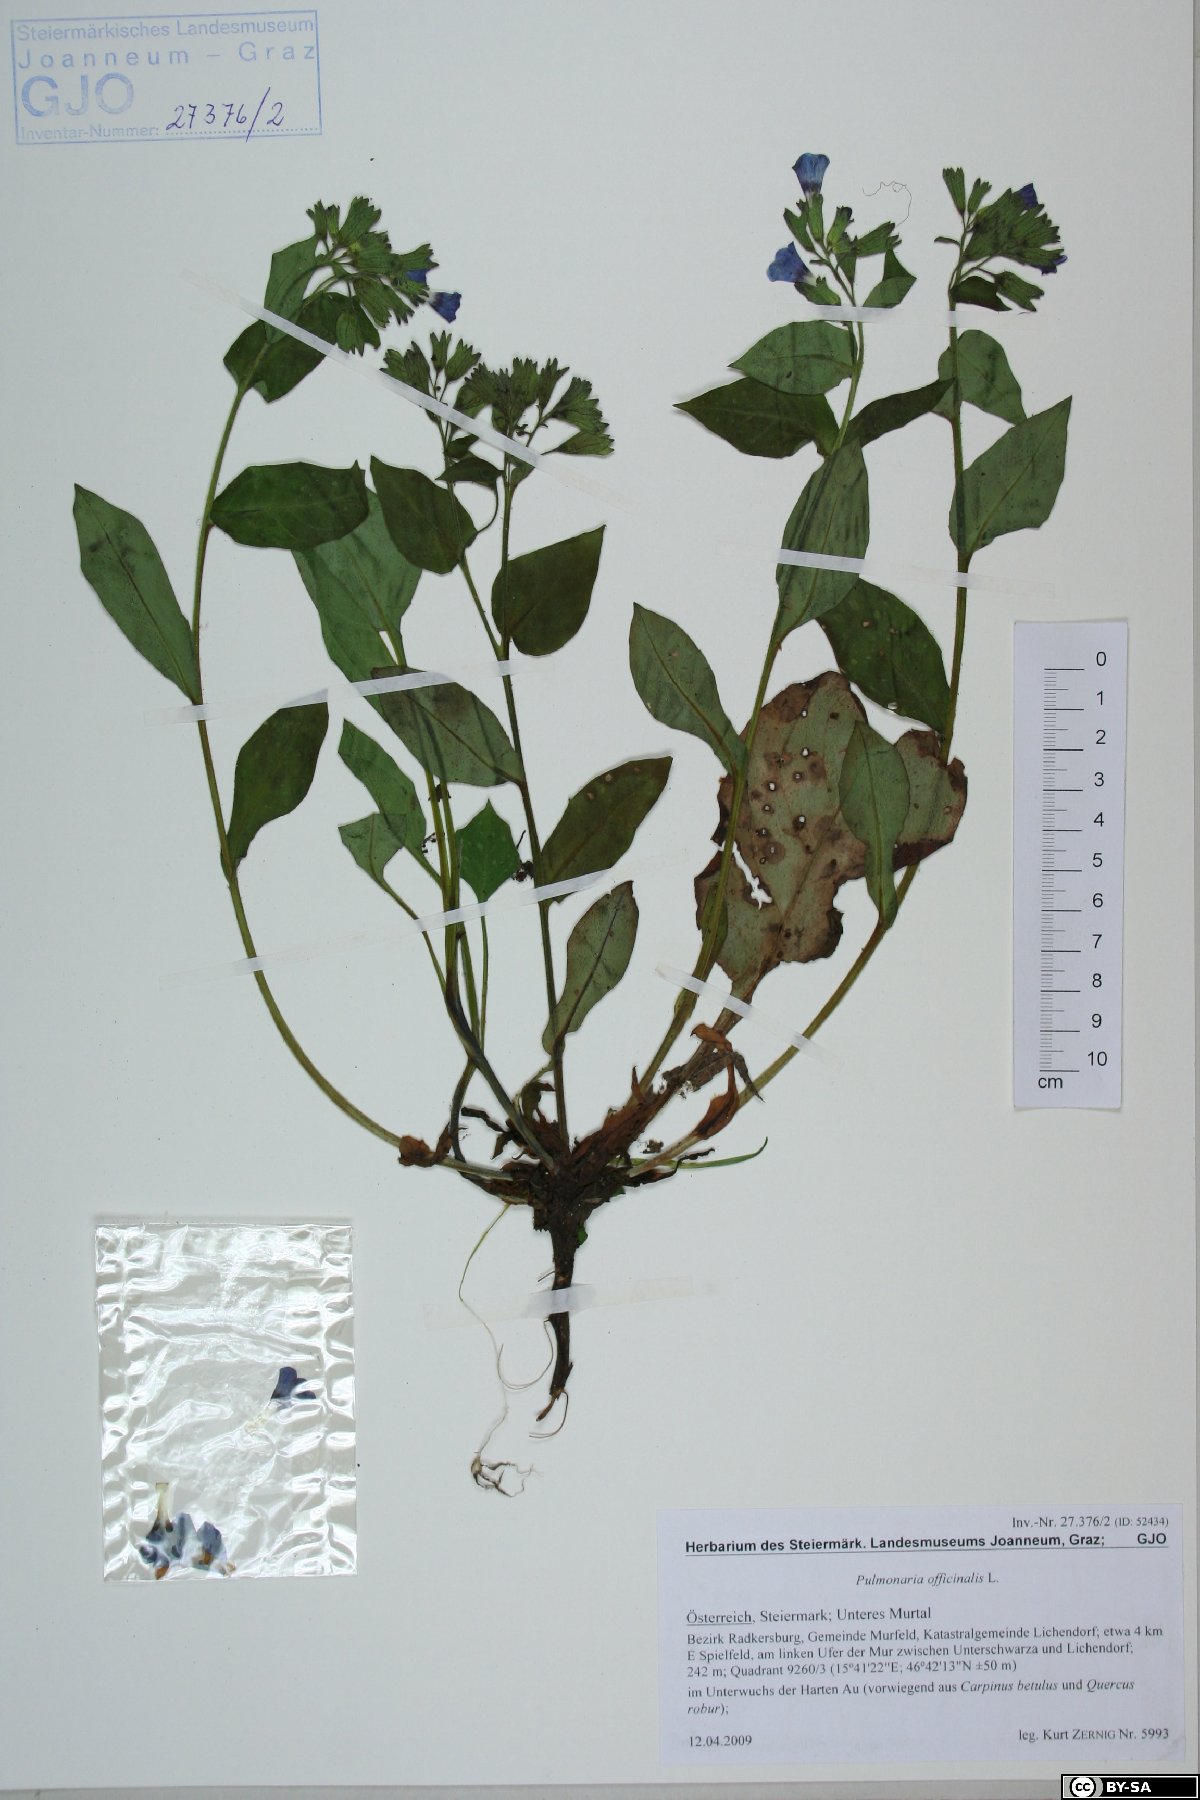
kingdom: Plantae
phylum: Tracheophyta
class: Magnoliopsida
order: Boraginales
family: Boraginaceae
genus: Pulmonaria
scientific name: Pulmonaria officinalis
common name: Lungwort
